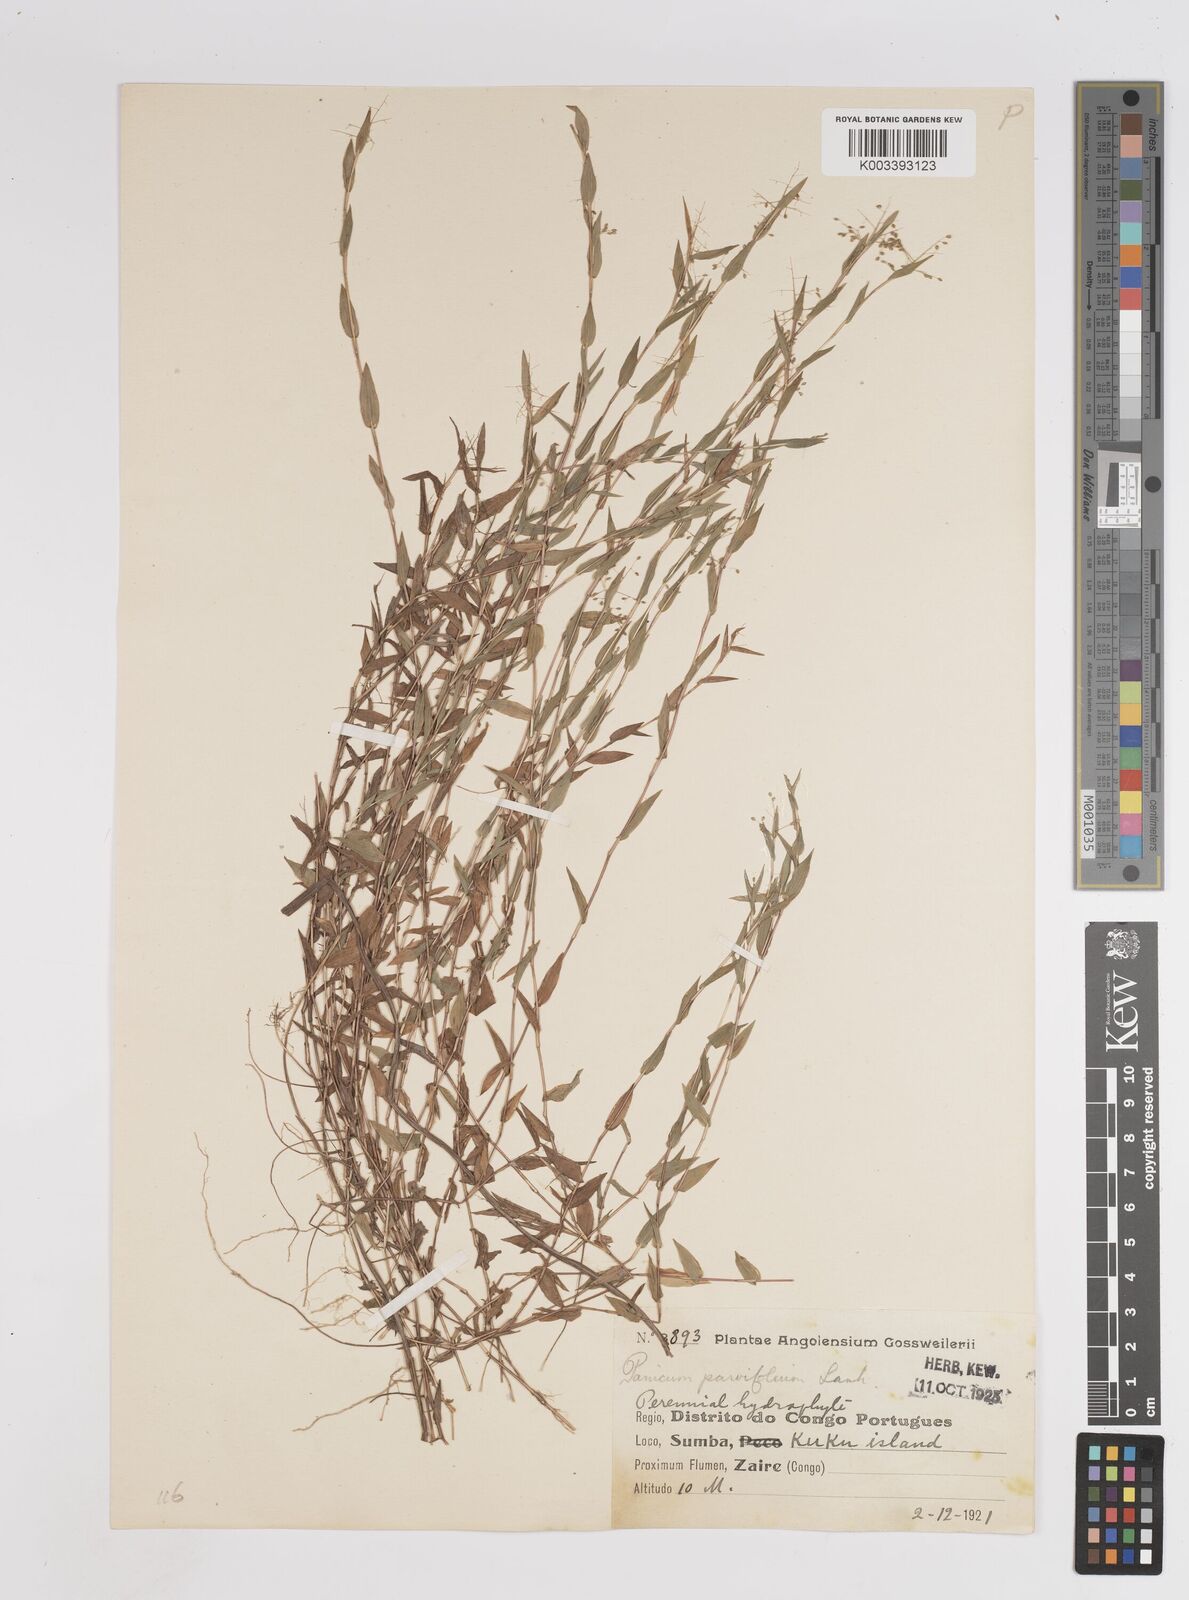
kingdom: Plantae
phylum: Tracheophyta
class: Liliopsida
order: Poales
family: Poaceae
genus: Trichanthecium
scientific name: Trichanthecium parvifolium
